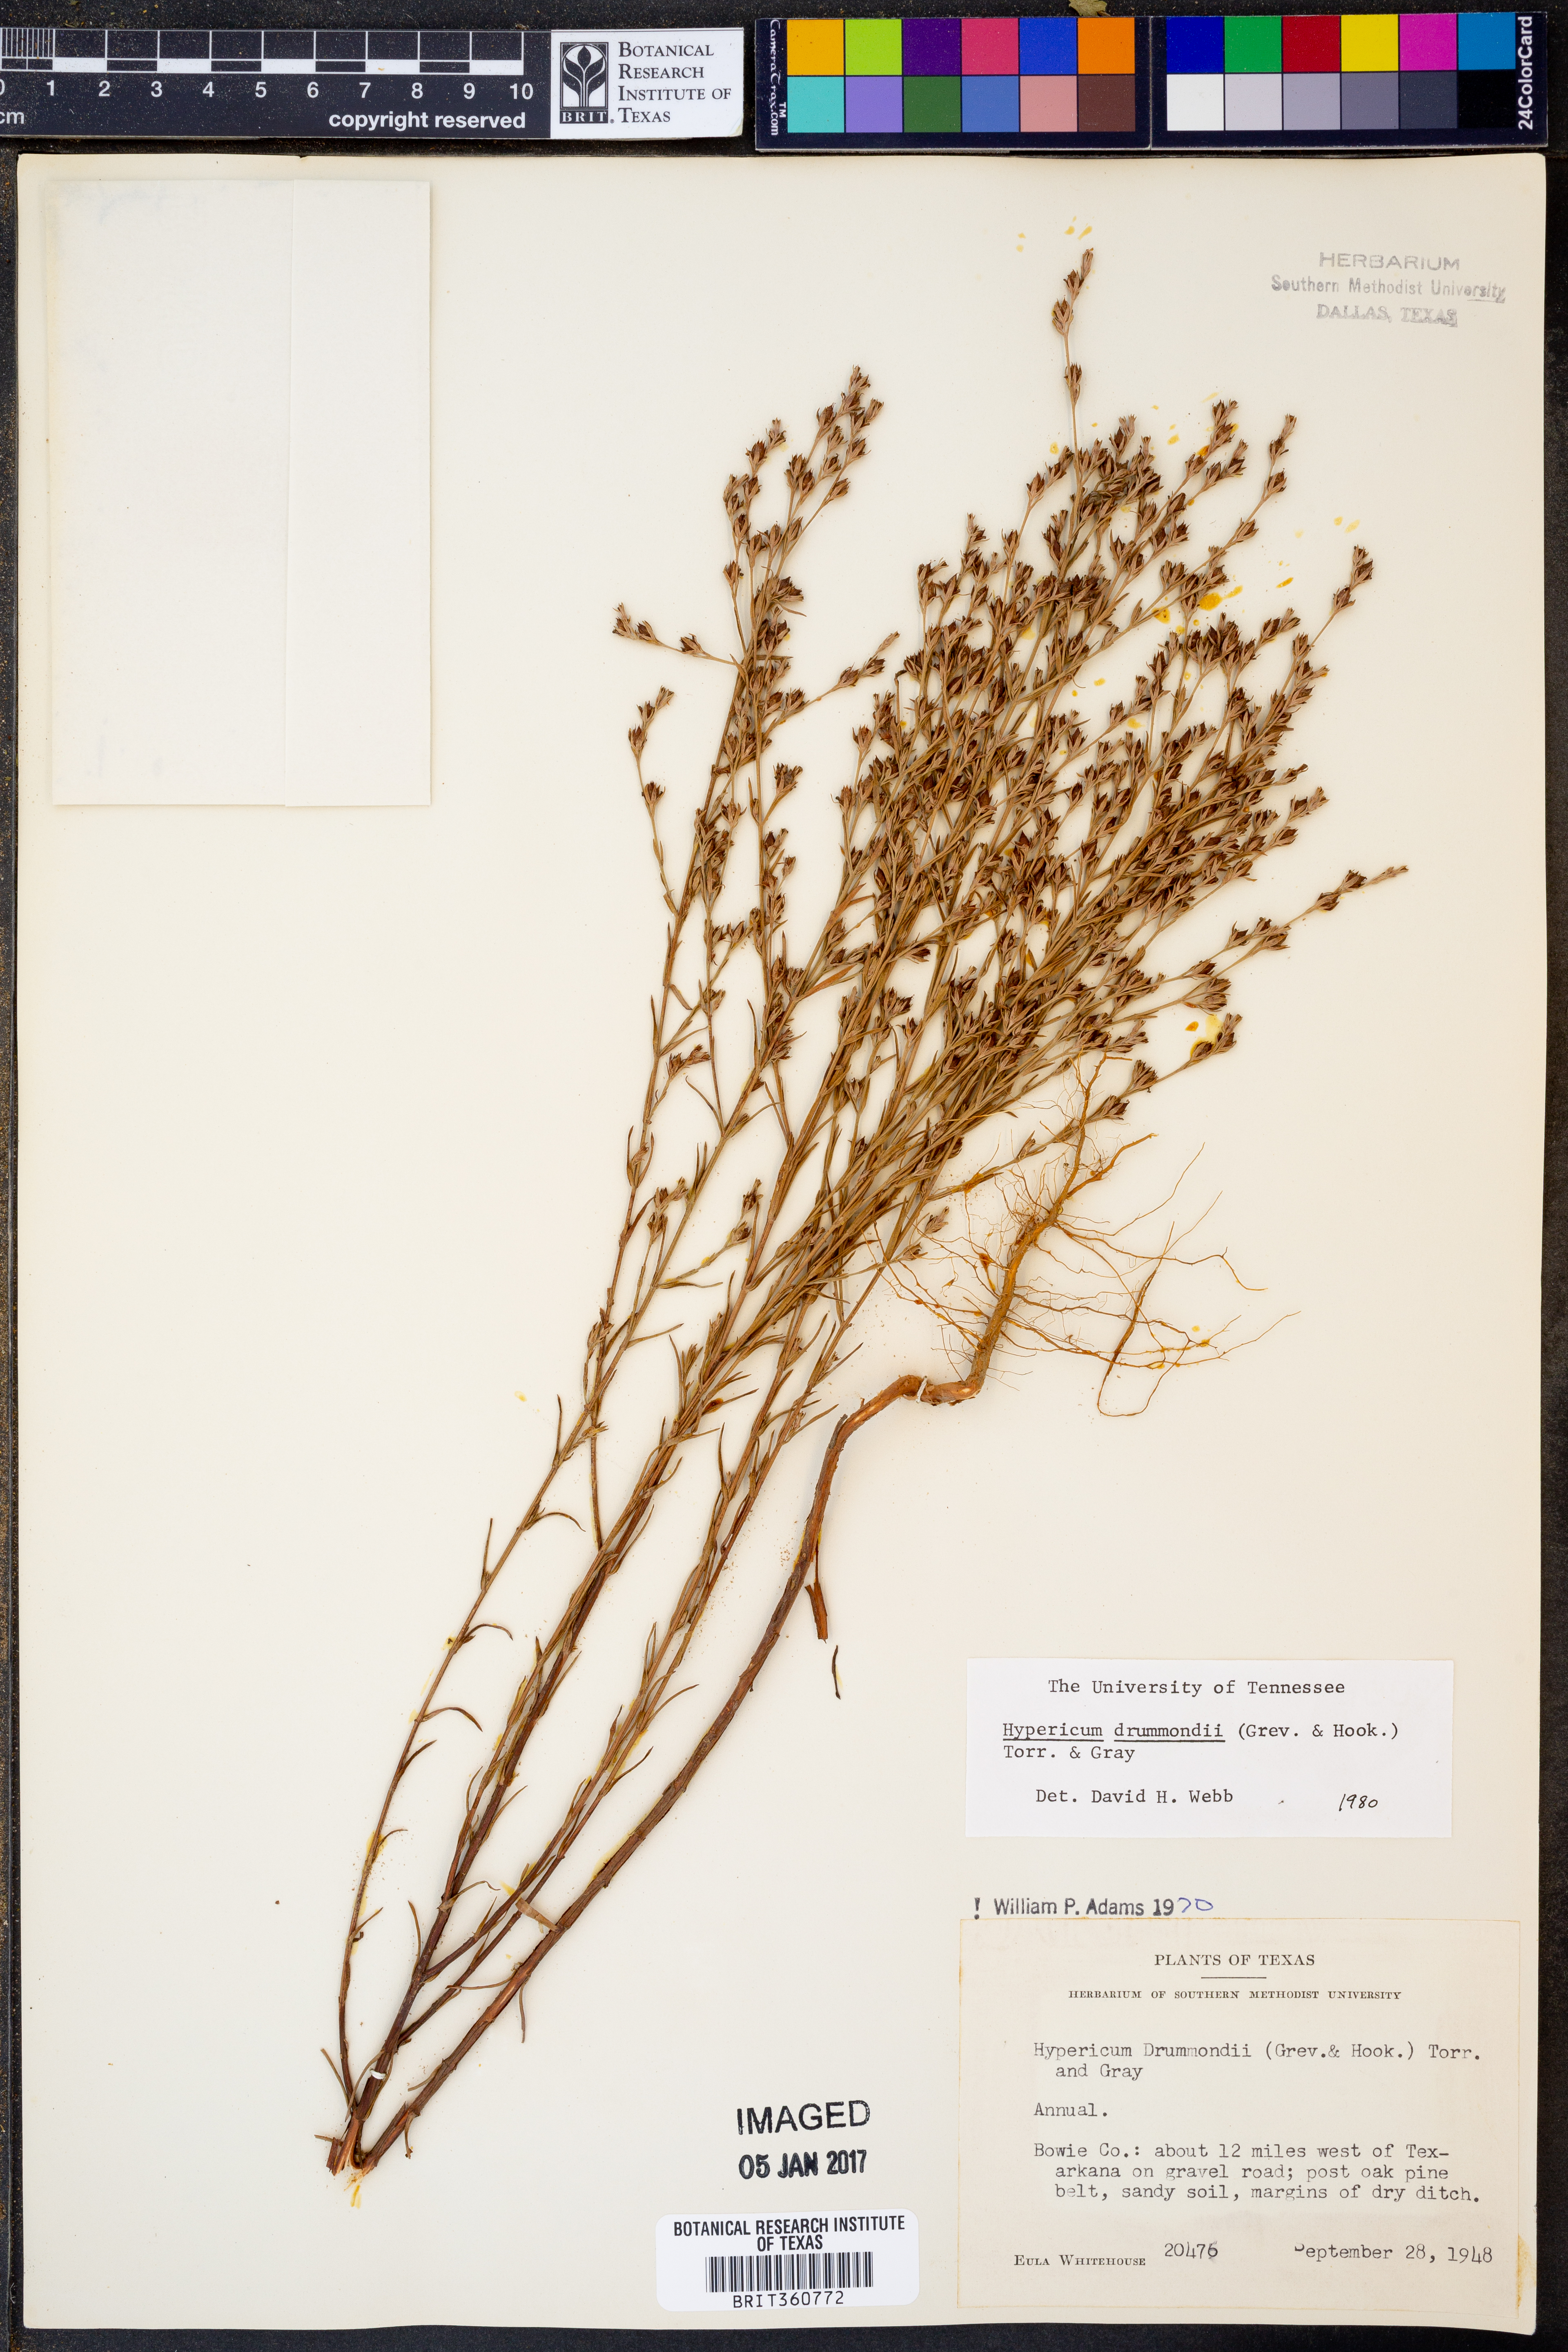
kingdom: Plantae
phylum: Tracheophyta
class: Magnoliopsida
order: Malpighiales
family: Hypericaceae
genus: Hypericum
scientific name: Hypericum drummondii
